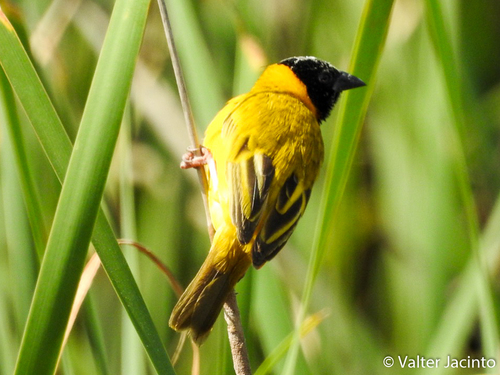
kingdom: Animalia
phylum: Chordata
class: Aves
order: Passeriformes
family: Ploceidae
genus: Ploceus
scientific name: Ploceus melanocephalus
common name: Black-headed weaver
